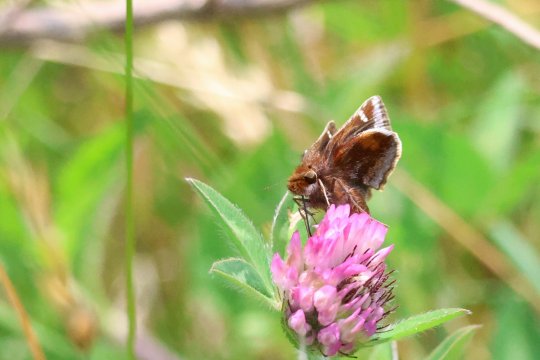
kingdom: Animalia
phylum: Arthropoda
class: Insecta
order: Lepidoptera
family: Hesperiidae
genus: Lon
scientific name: Lon zabulon
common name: Zabulon Skipper
